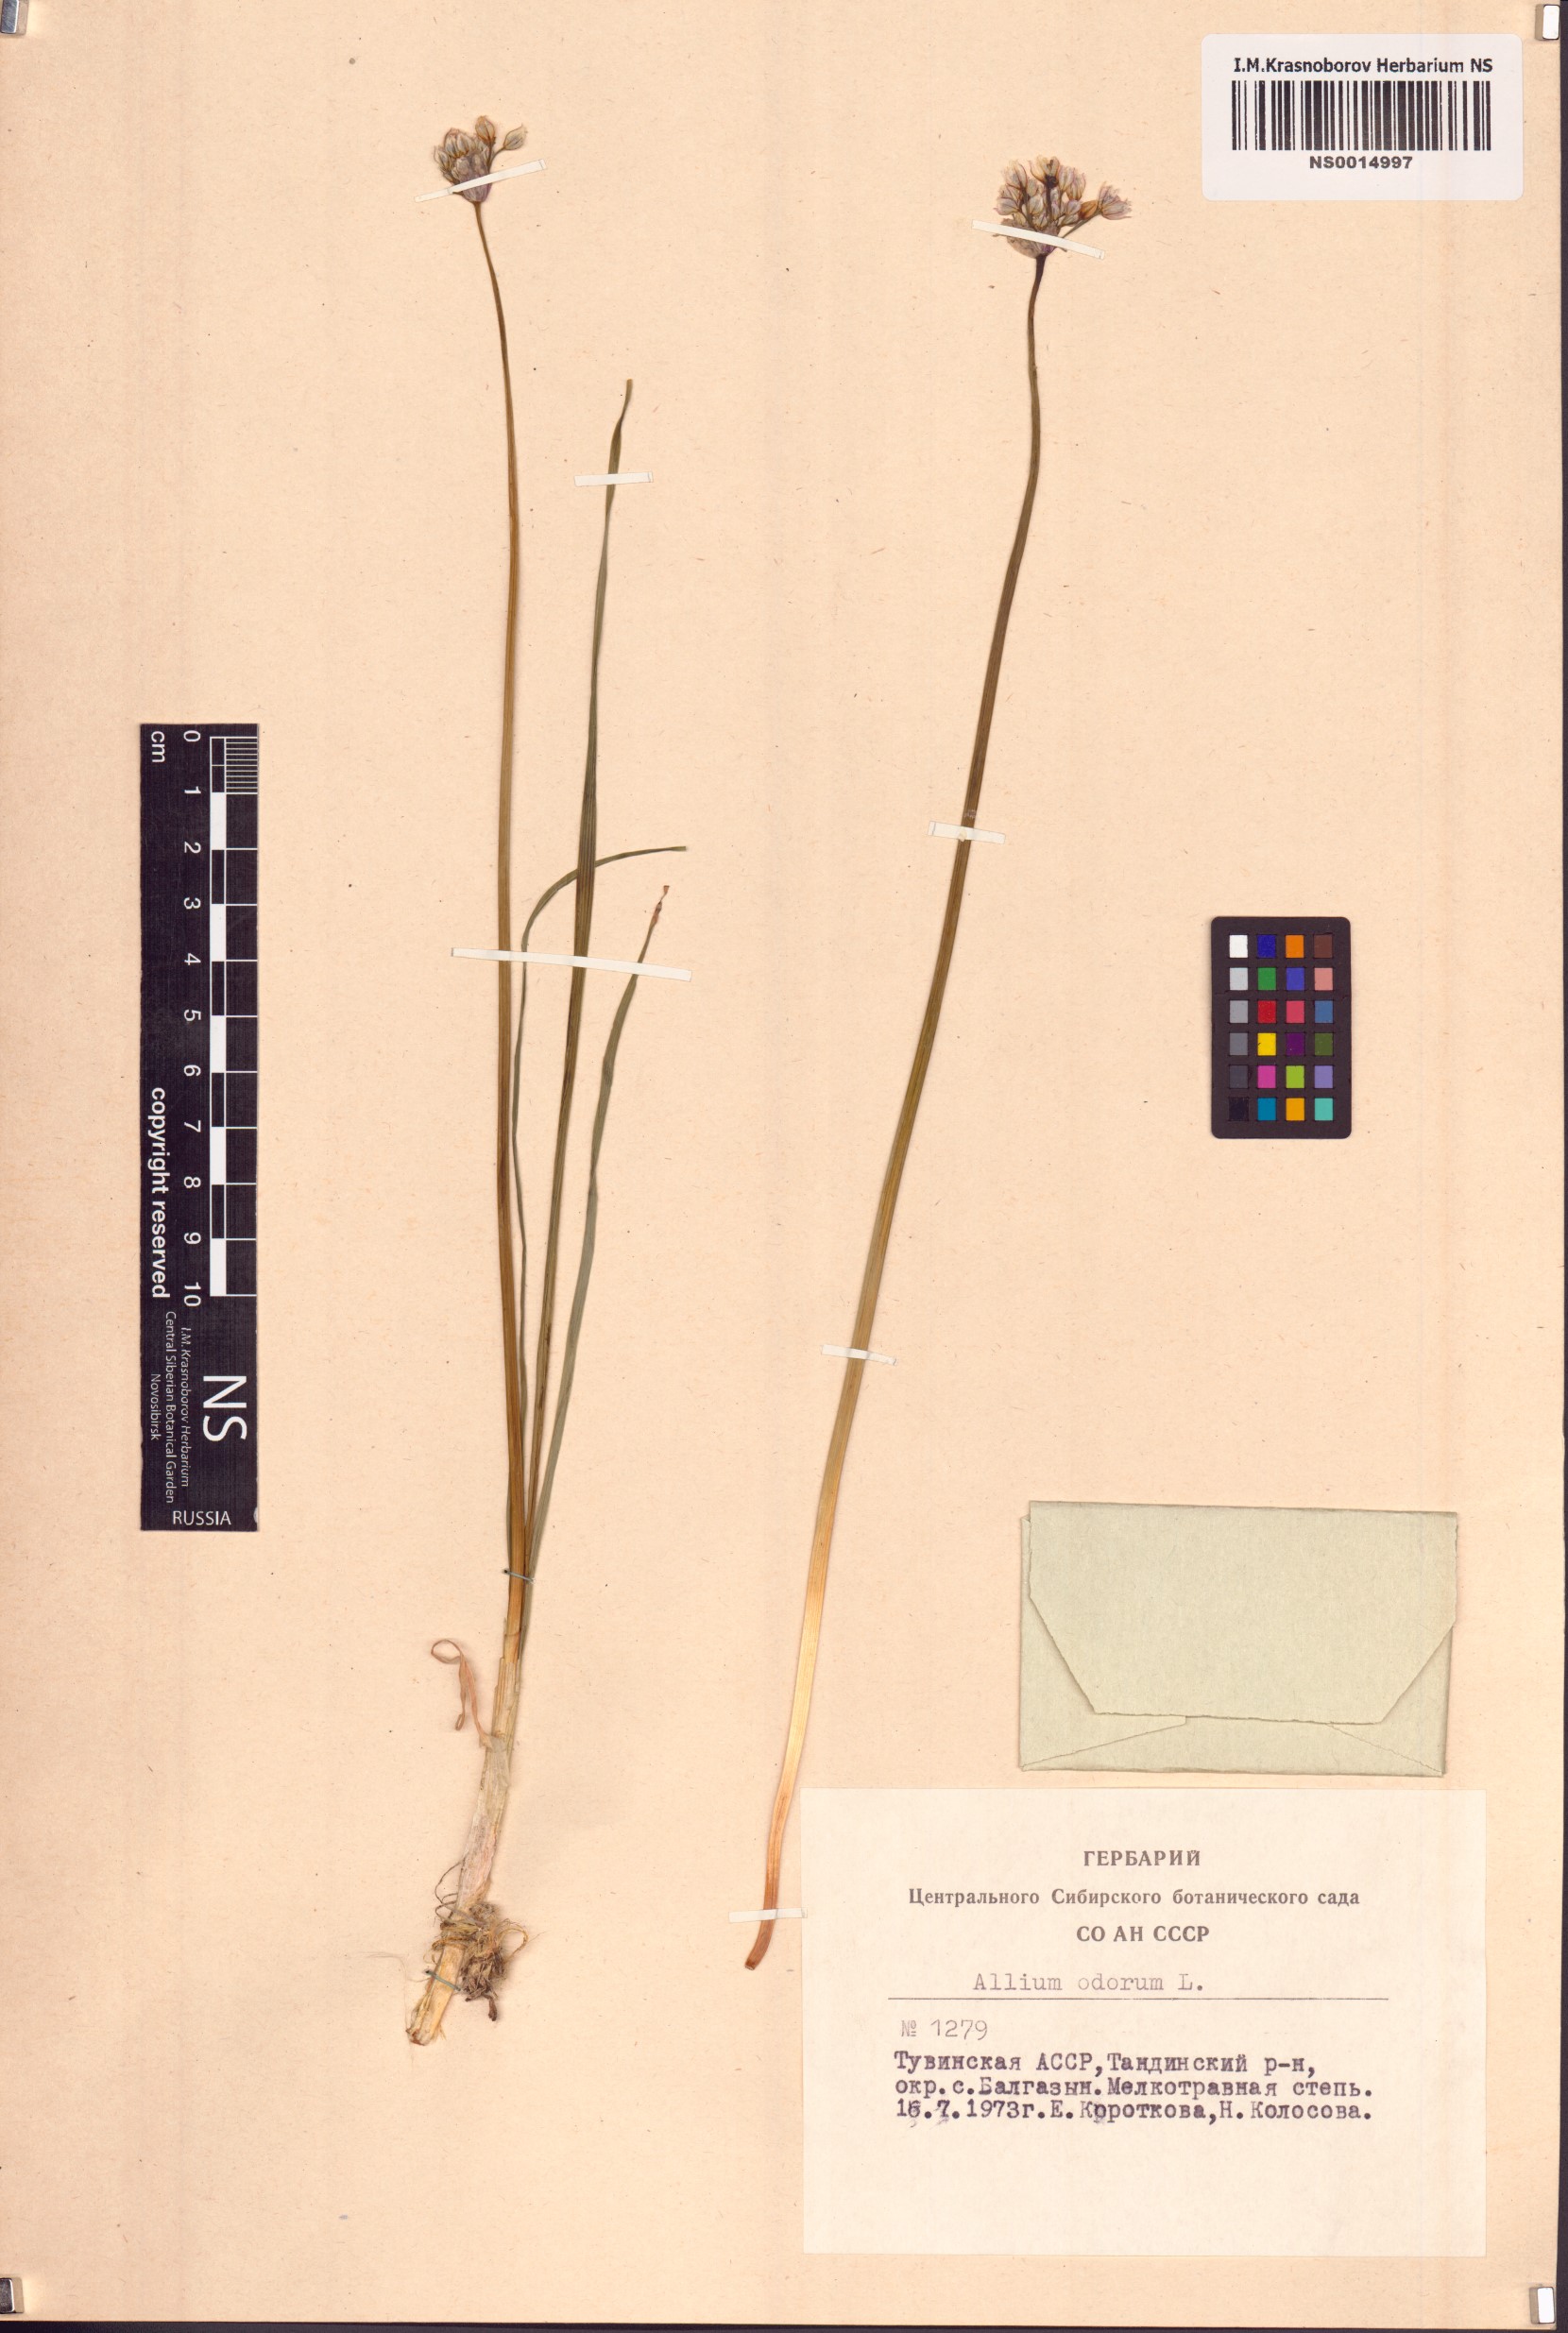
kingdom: Plantae
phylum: Tracheophyta
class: Liliopsida
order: Asparagales
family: Amaryllidaceae
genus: Allium
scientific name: Allium ramosum
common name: Fragrant garlic
